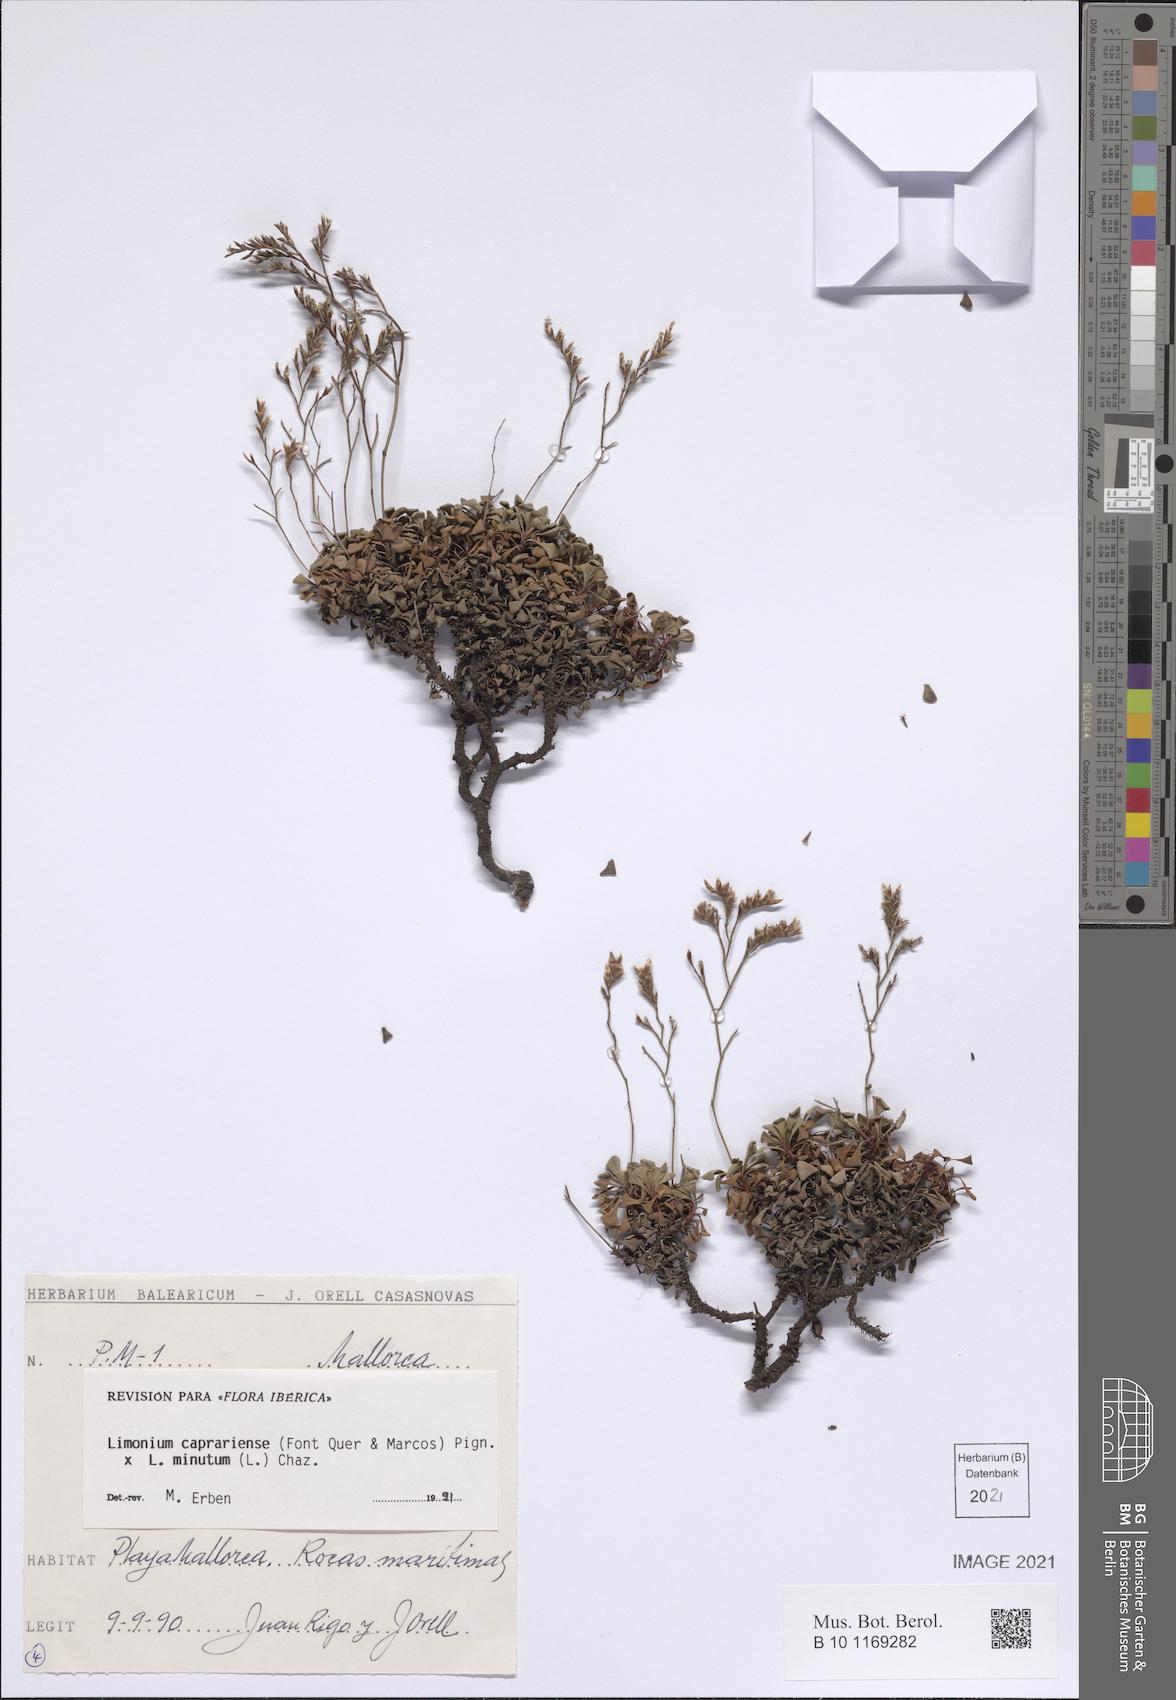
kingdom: Plantae
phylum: Tracheophyta
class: Magnoliopsida
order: Caryophyllales
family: Plumbaginaceae
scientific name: Plumbaginaceae
